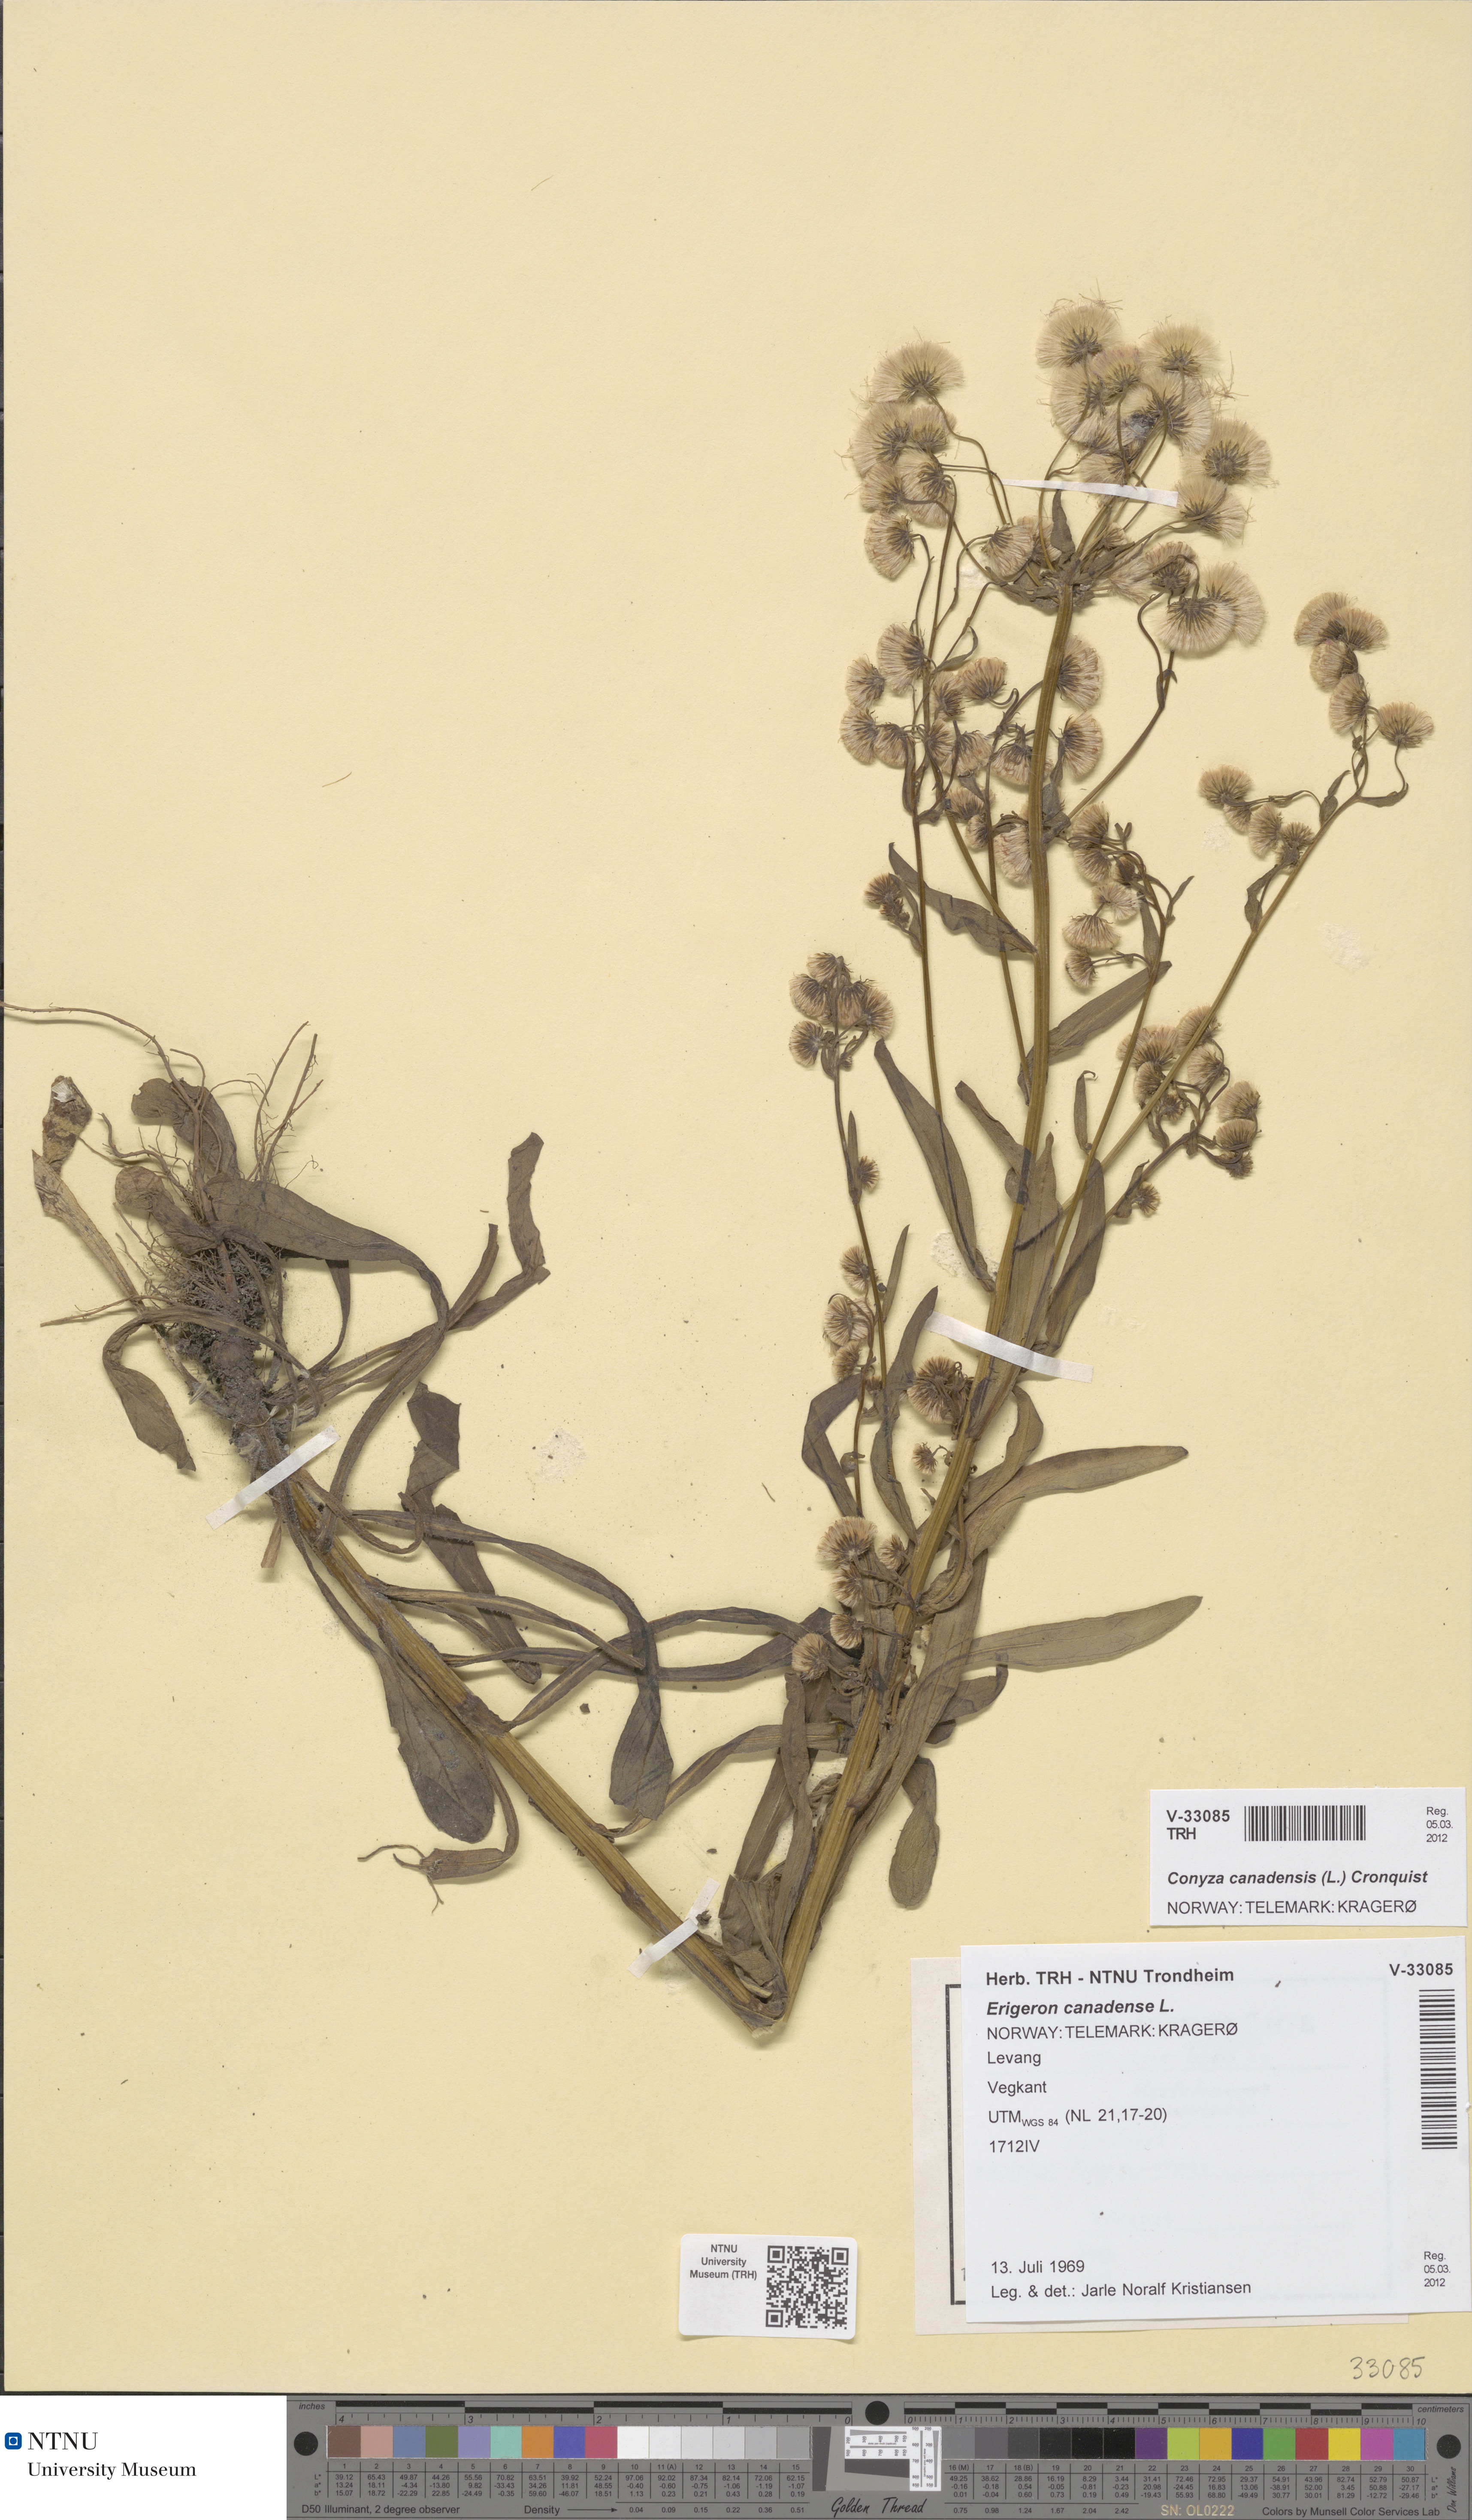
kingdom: Plantae
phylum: Tracheophyta
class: Magnoliopsida
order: Asterales
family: Asteraceae
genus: Erigeron
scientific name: Erigeron canadensis
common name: Canadian fleabane
